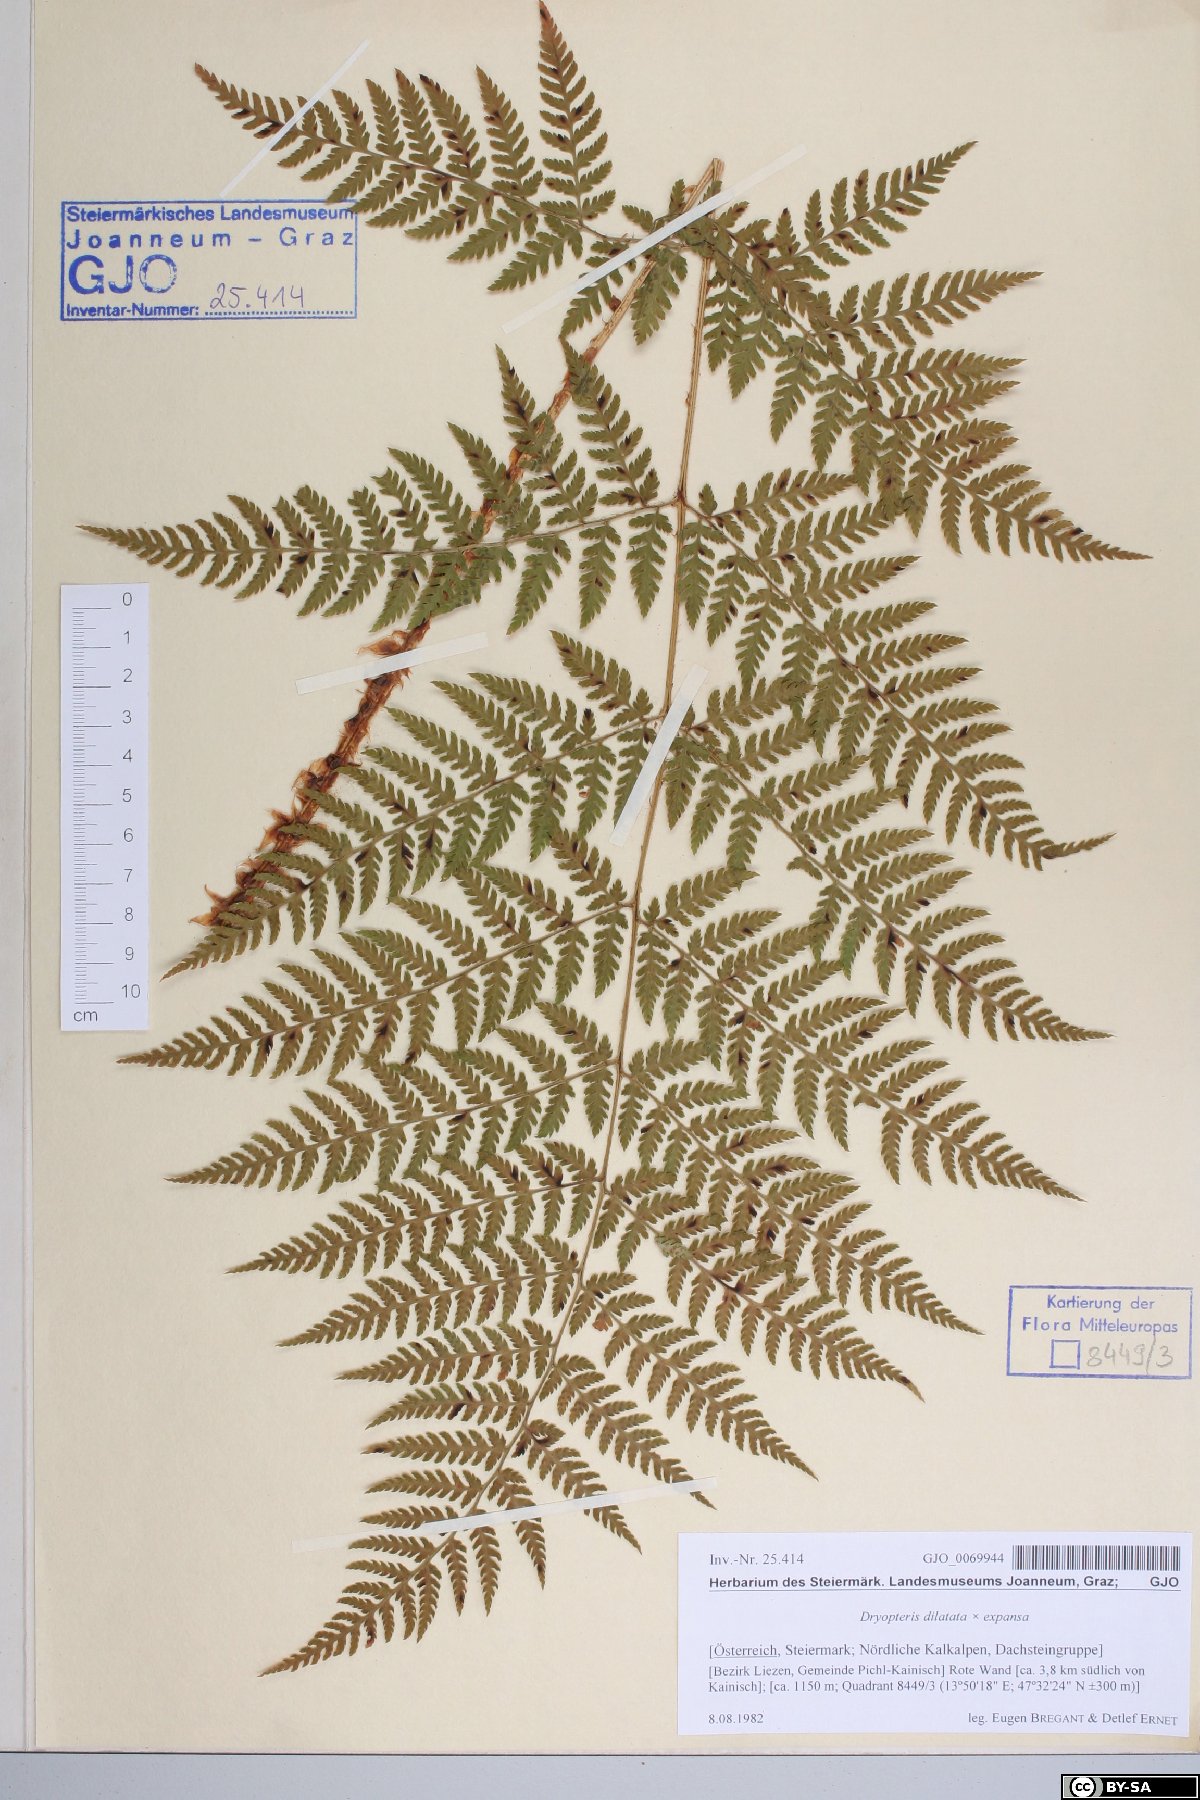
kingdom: Plantae
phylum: Tracheophyta
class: Polypodiopsida
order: Polypodiales
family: Dryopteridaceae
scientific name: Dryopteridaceae
